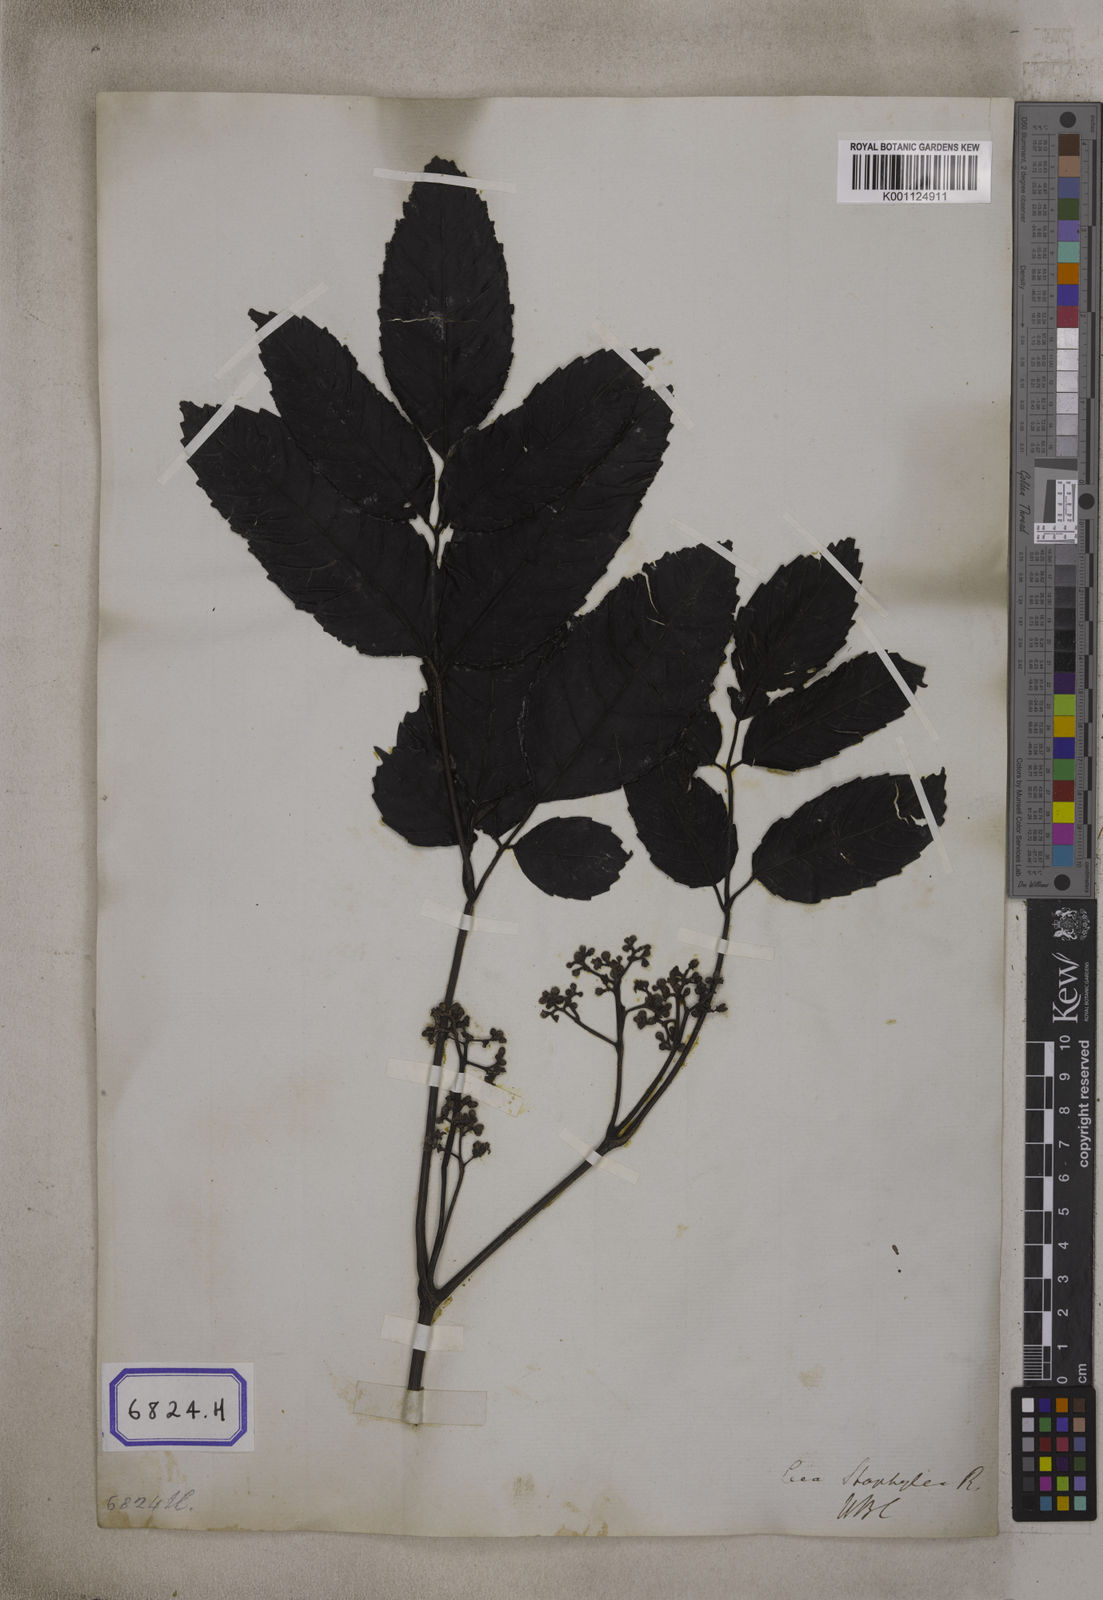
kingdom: Plantae
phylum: Tracheophyta
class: Magnoliopsida
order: Vitales
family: Vitaceae
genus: Leea
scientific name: Leea
